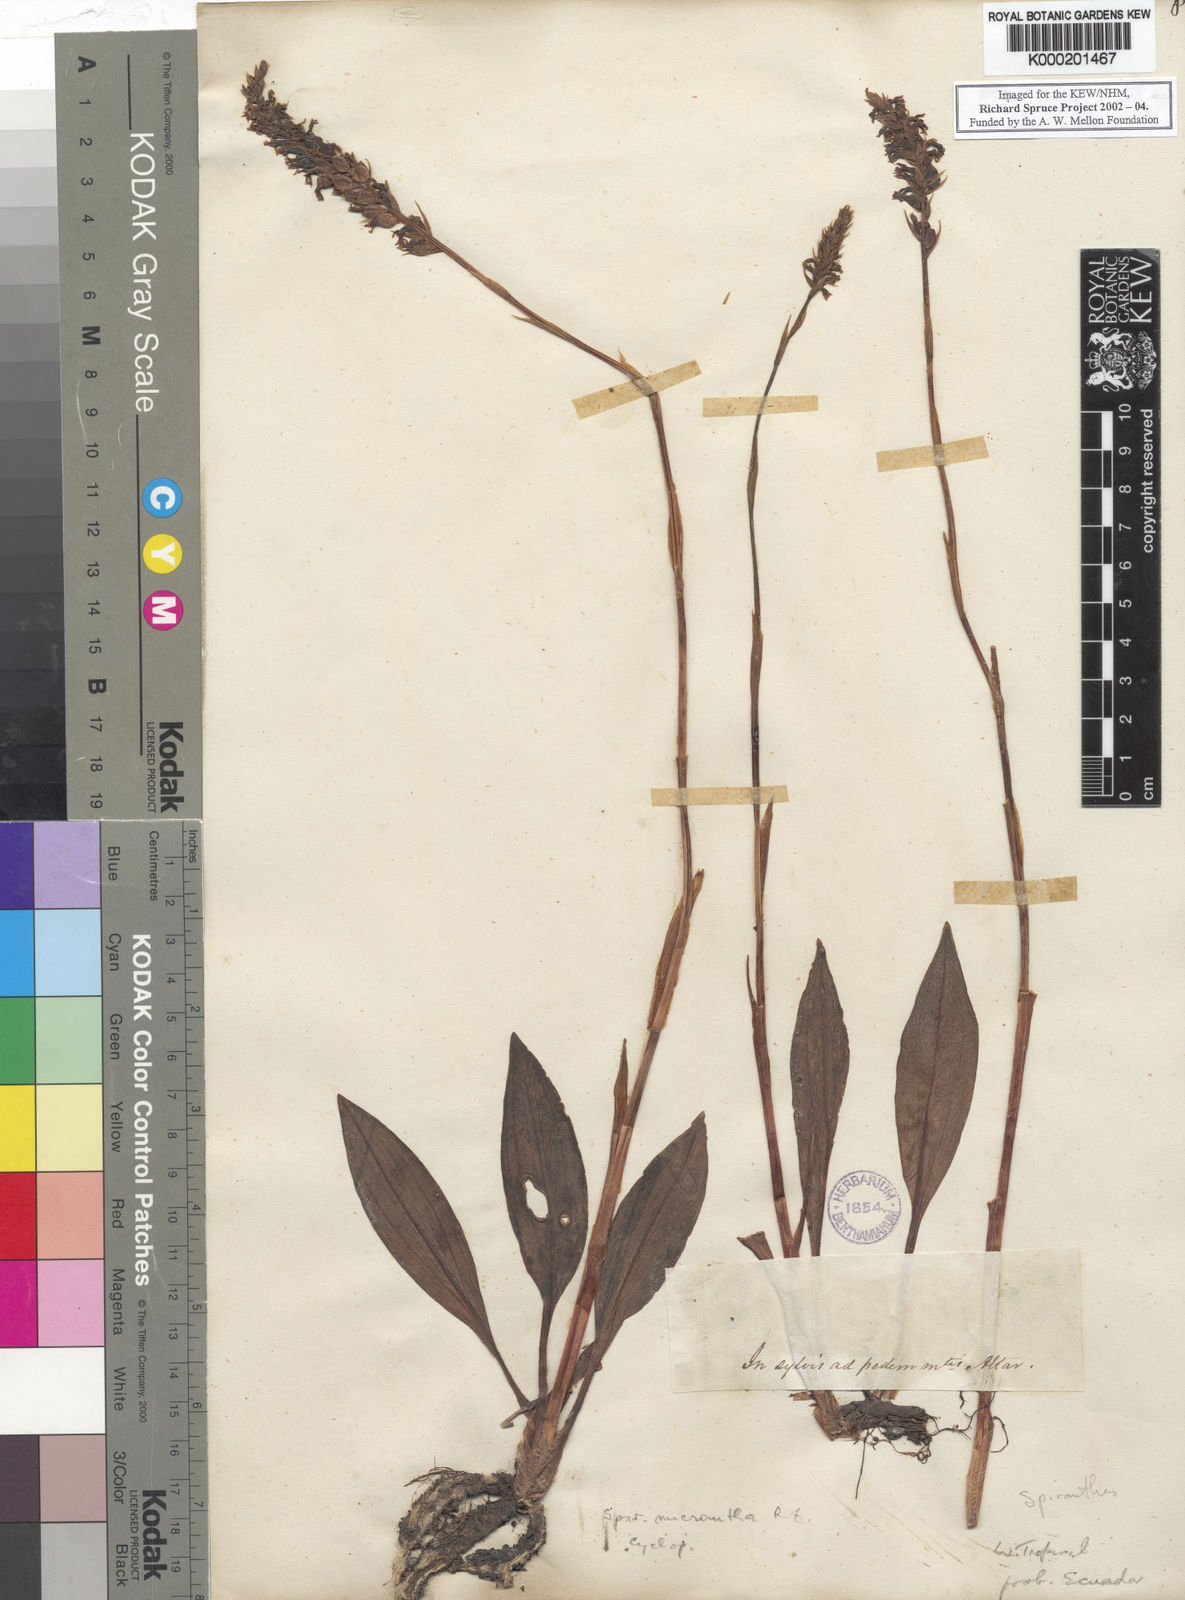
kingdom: Plantae
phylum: Tracheophyta
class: Liliopsida
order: Asparagales
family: Orchidaceae
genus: Cyclopogon
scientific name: Cyclopogon
